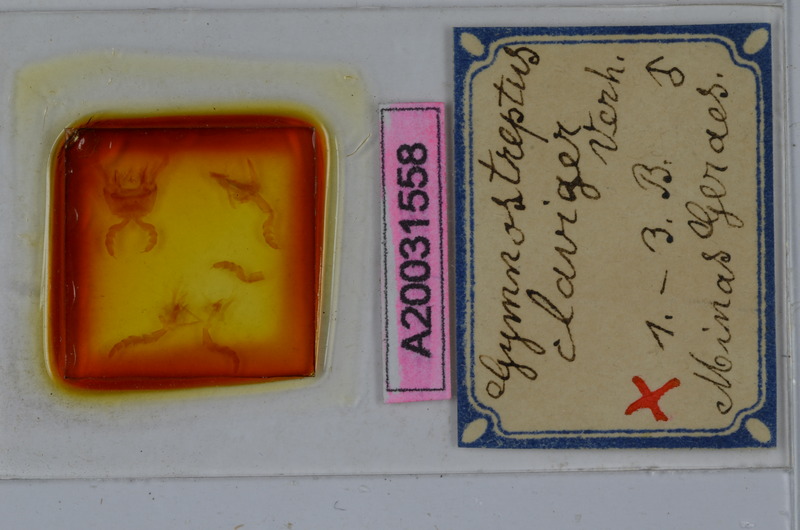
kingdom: Animalia
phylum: Arthropoda
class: Diplopoda
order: Spirostreptida
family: Spirostreptidae
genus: Gymnostreptus
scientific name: Gymnostreptus claviger
